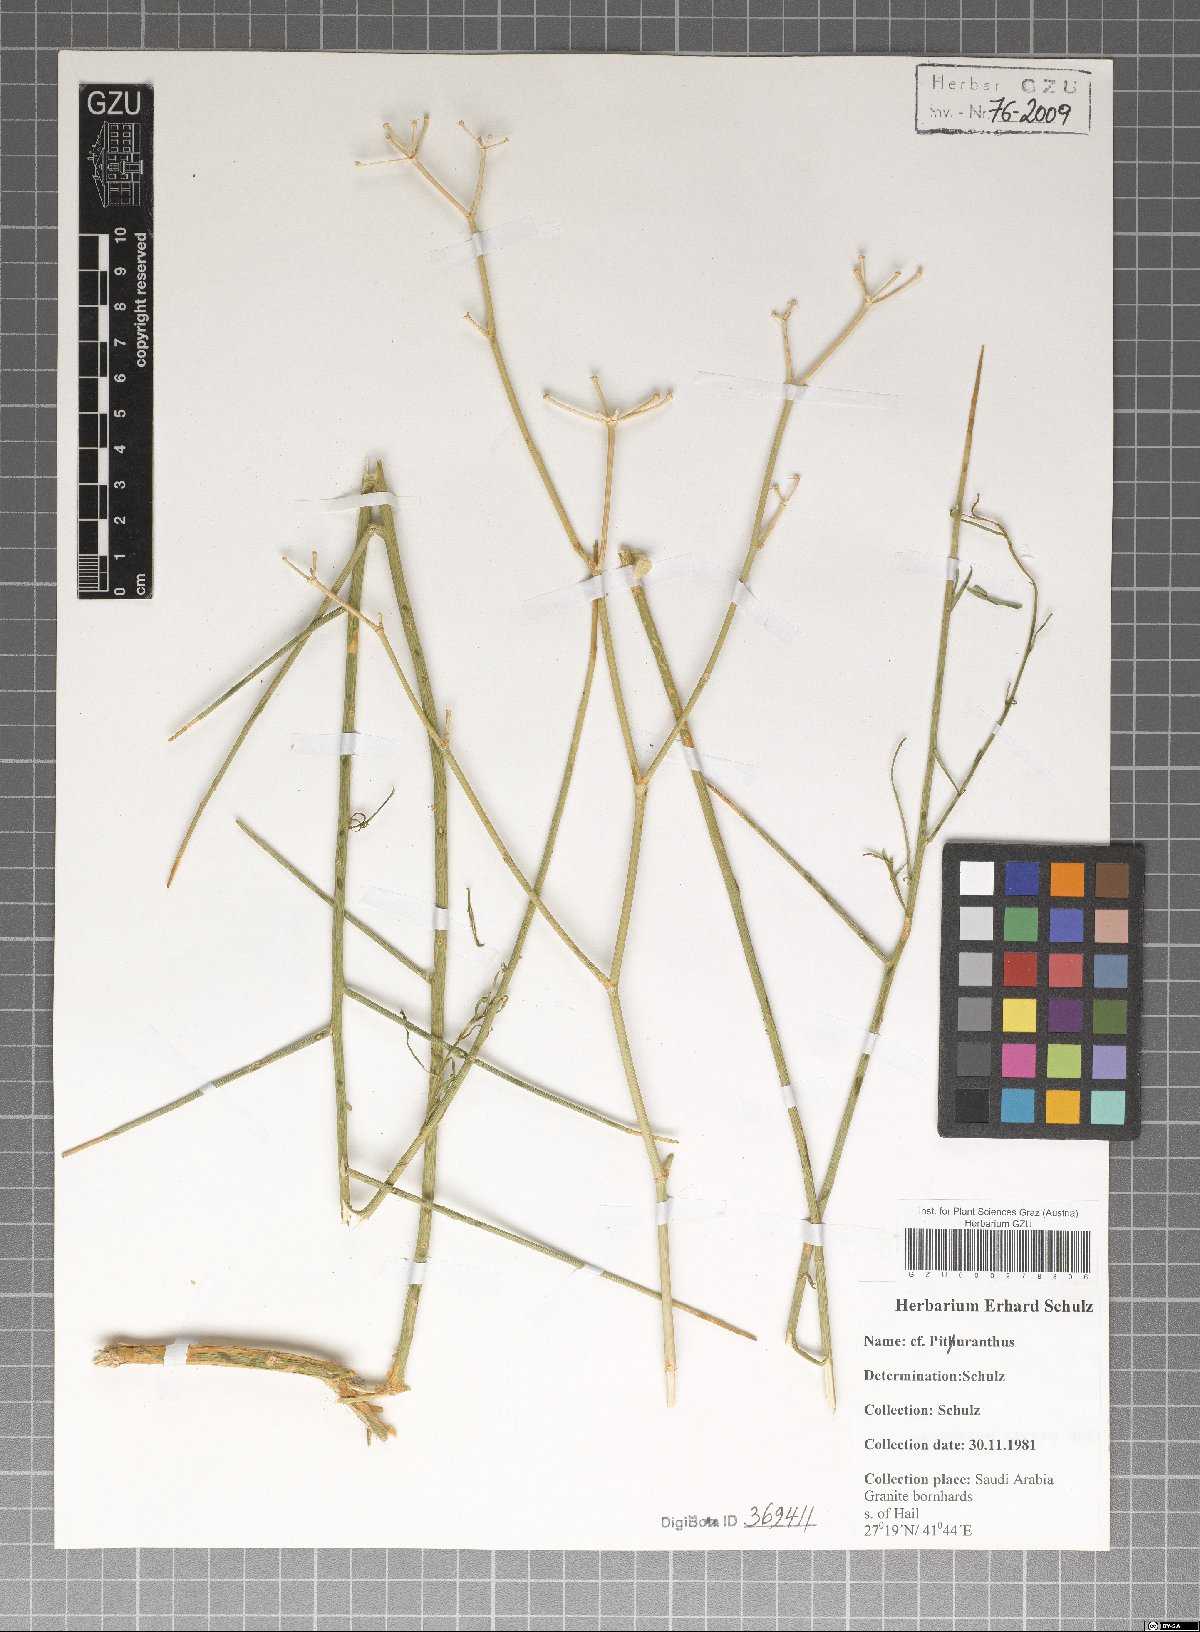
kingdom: Plantae
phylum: Tracheophyta
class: Magnoliopsida
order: Apiales
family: Apiaceae
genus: Deverra
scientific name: Deverra
